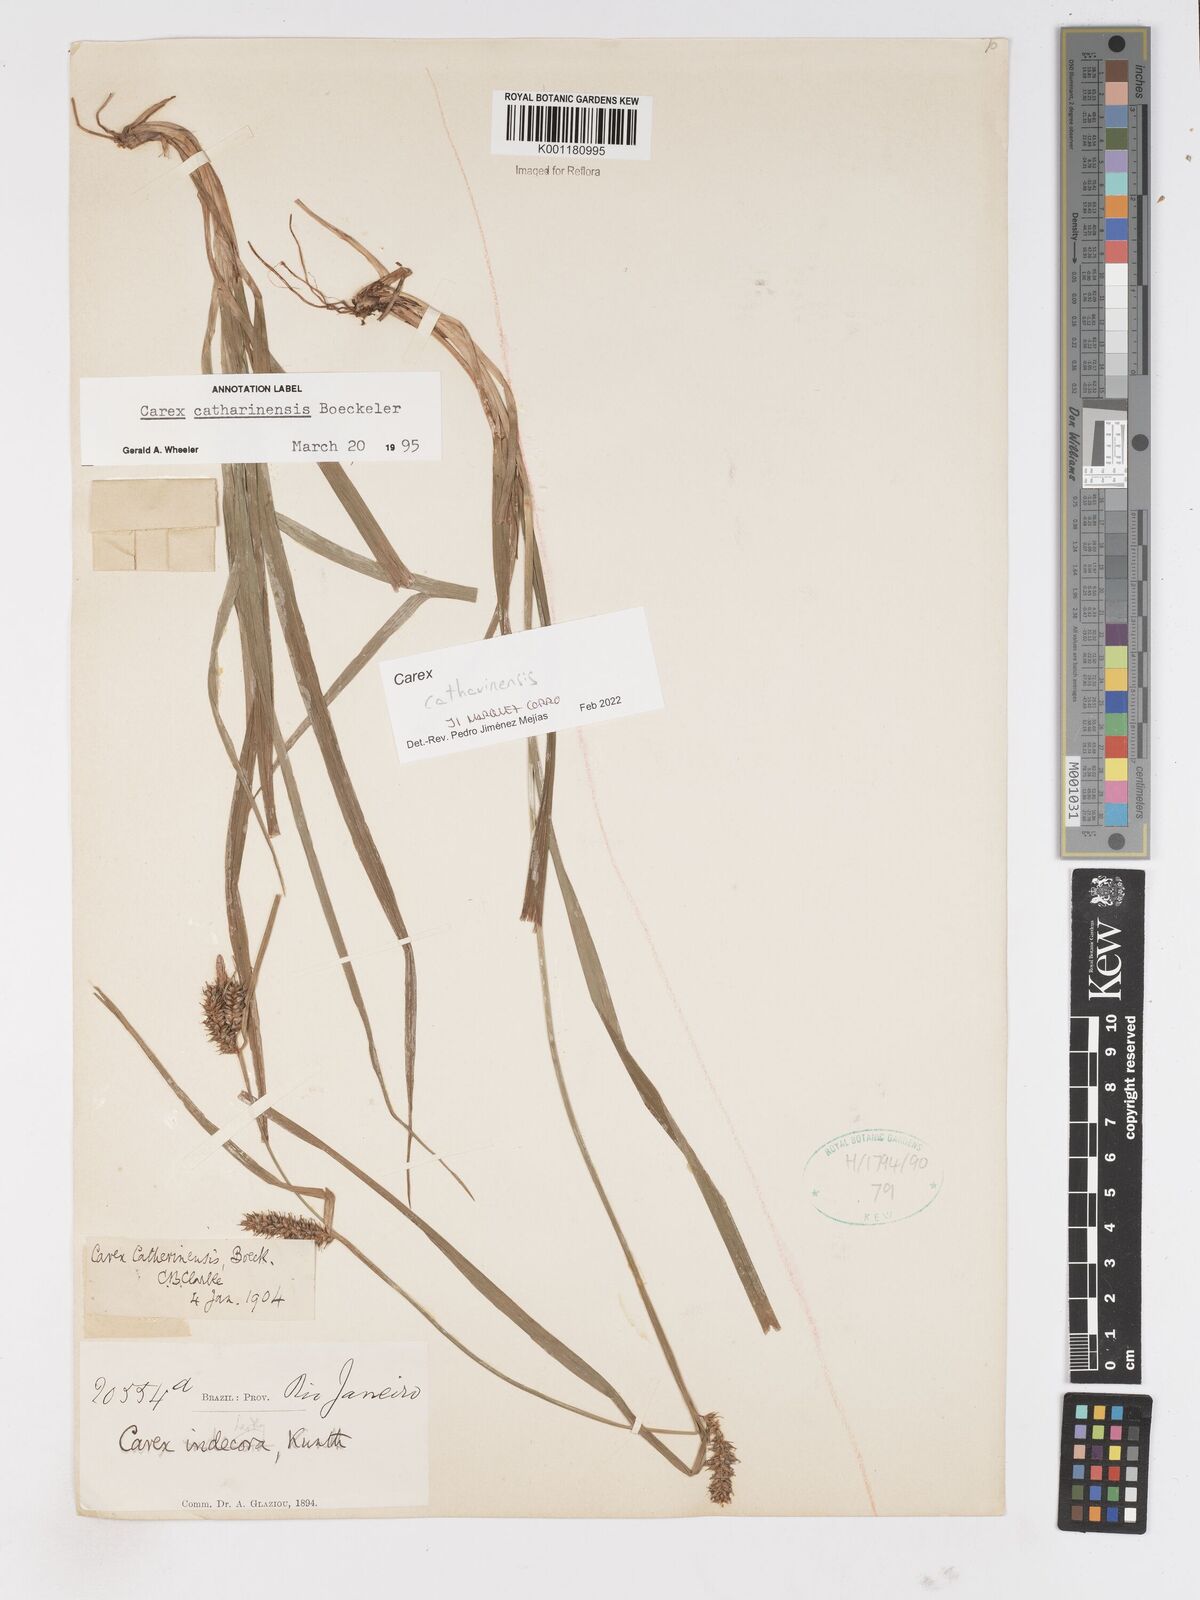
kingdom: Plantae
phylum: Tracheophyta
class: Liliopsida
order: Poales
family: Cyperaceae
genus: Carex
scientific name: Carex catharinensis
